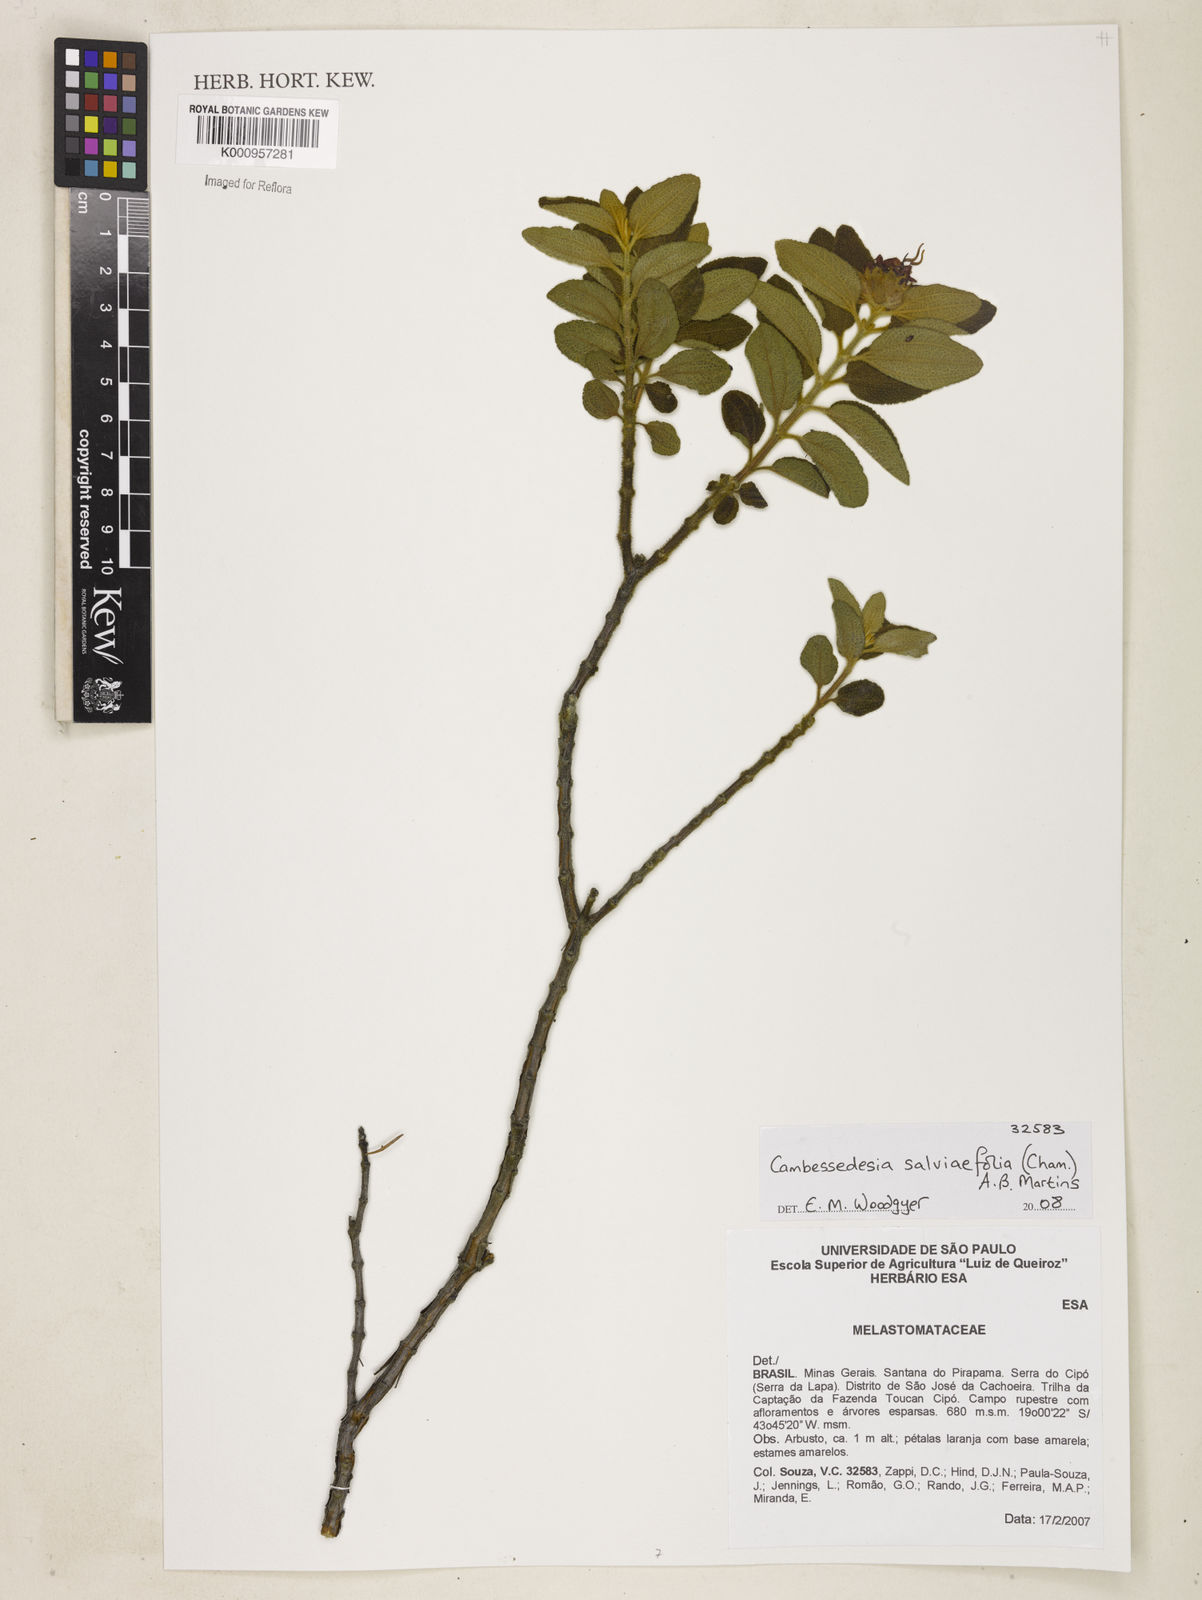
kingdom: Plantae
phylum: Tracheophyta
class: Magnoliopsida
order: Myrtales
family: Melastomataceae
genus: Cambessedesia
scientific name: Cambessedesia
